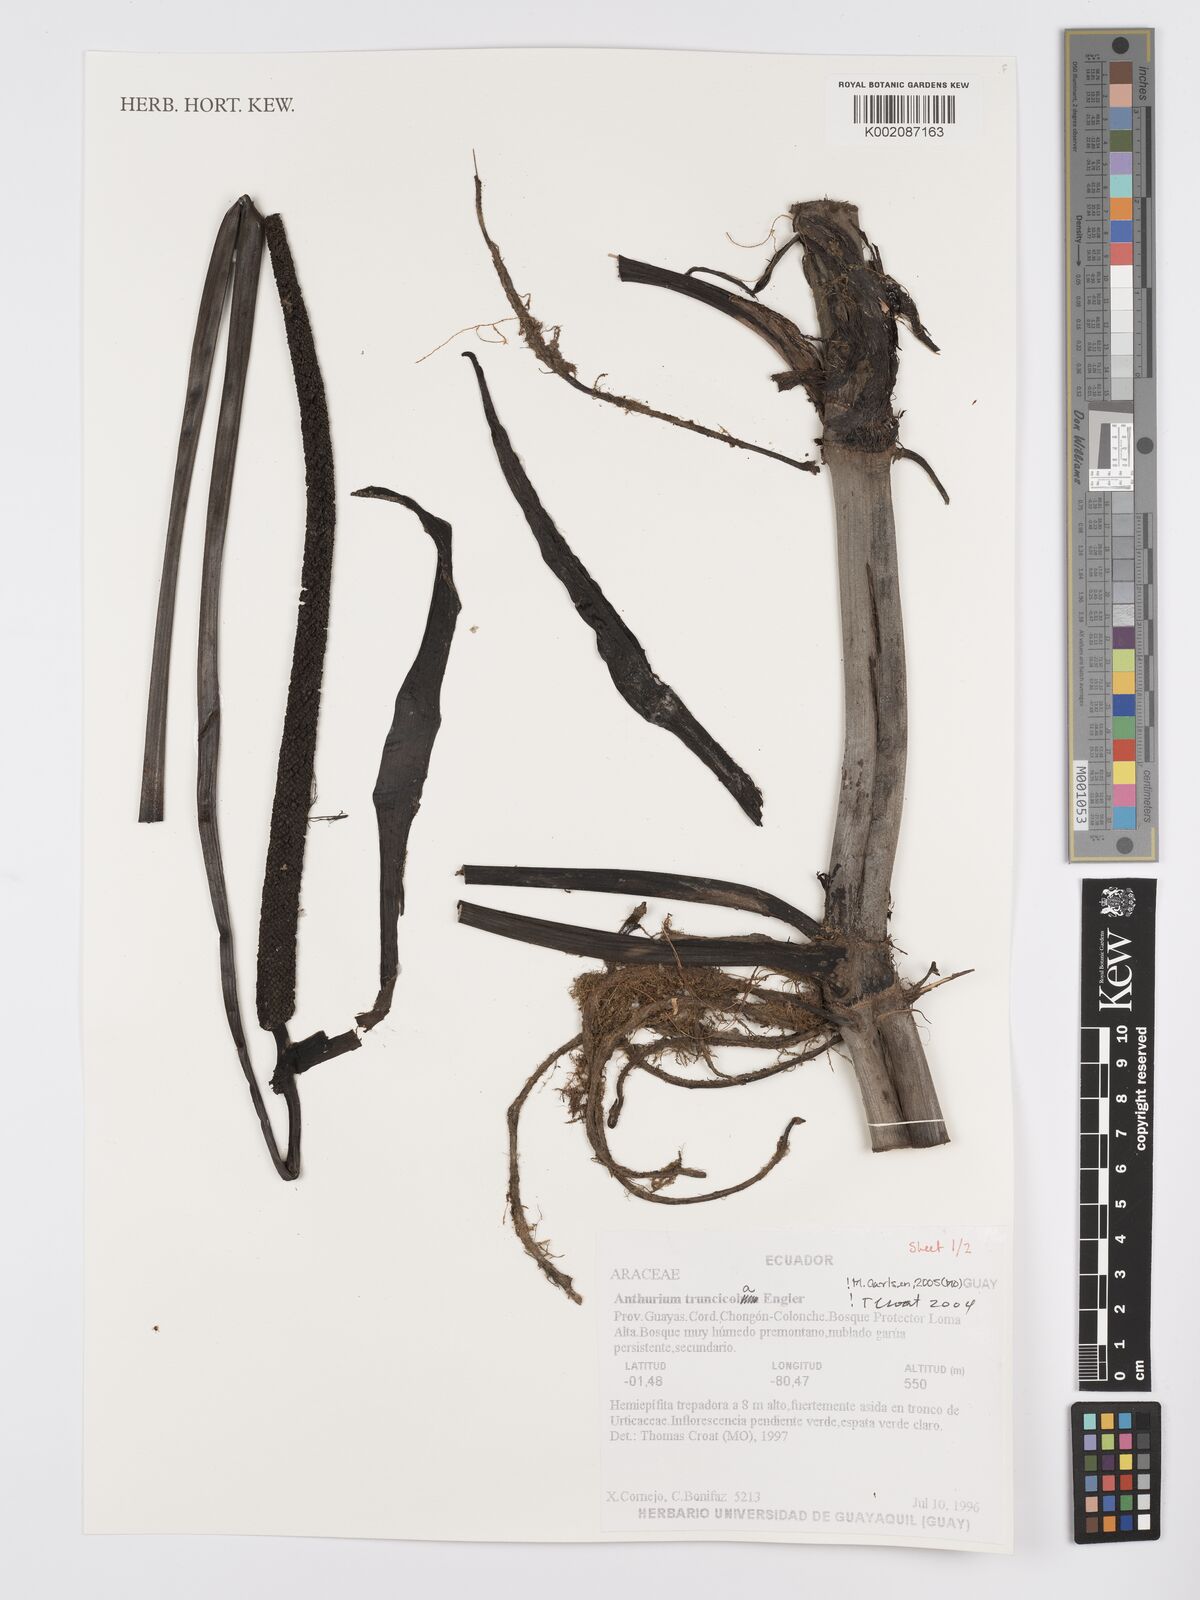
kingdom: Plantae
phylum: Tracheophyta
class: Liliopsida
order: Alismatales
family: Araceae
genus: Anthurium
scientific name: Anthurium truncicola
